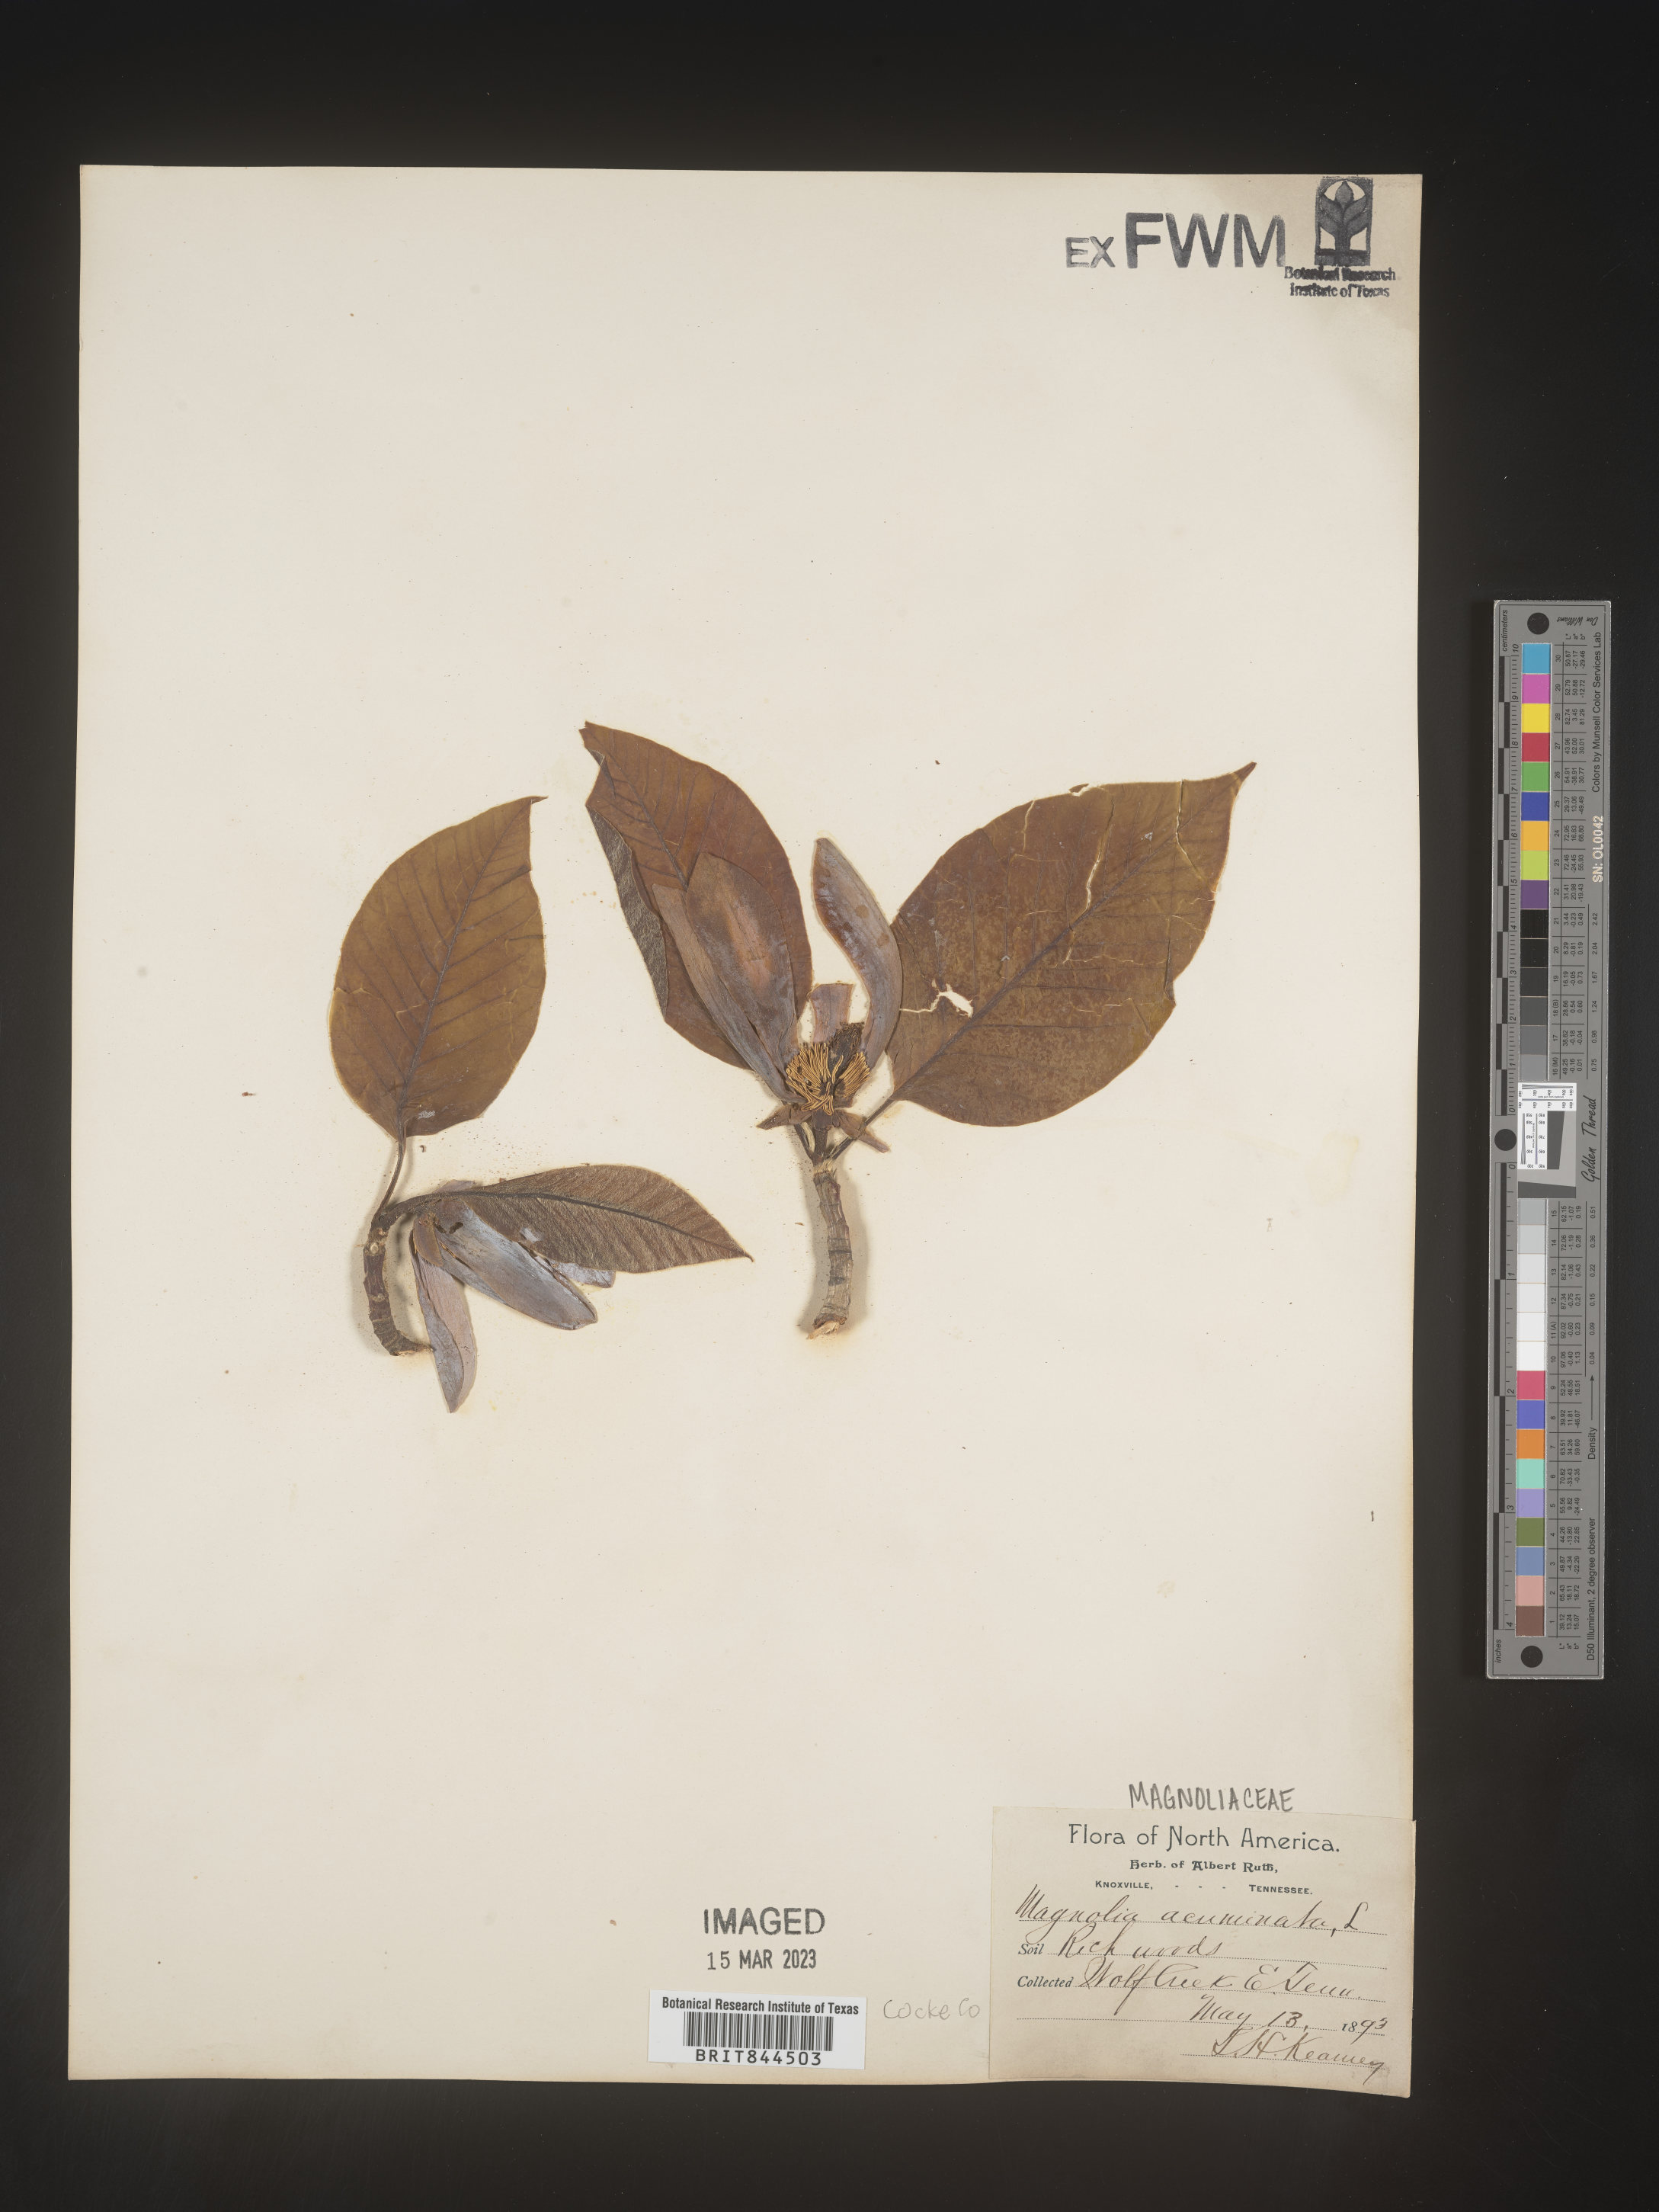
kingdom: Plantae
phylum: Tracheophyta
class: Magnoliopsida
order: Magnoliales
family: Magnoliaceae
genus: Magnolia
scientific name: Magnolia acuminata
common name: Cucumber magnolia
